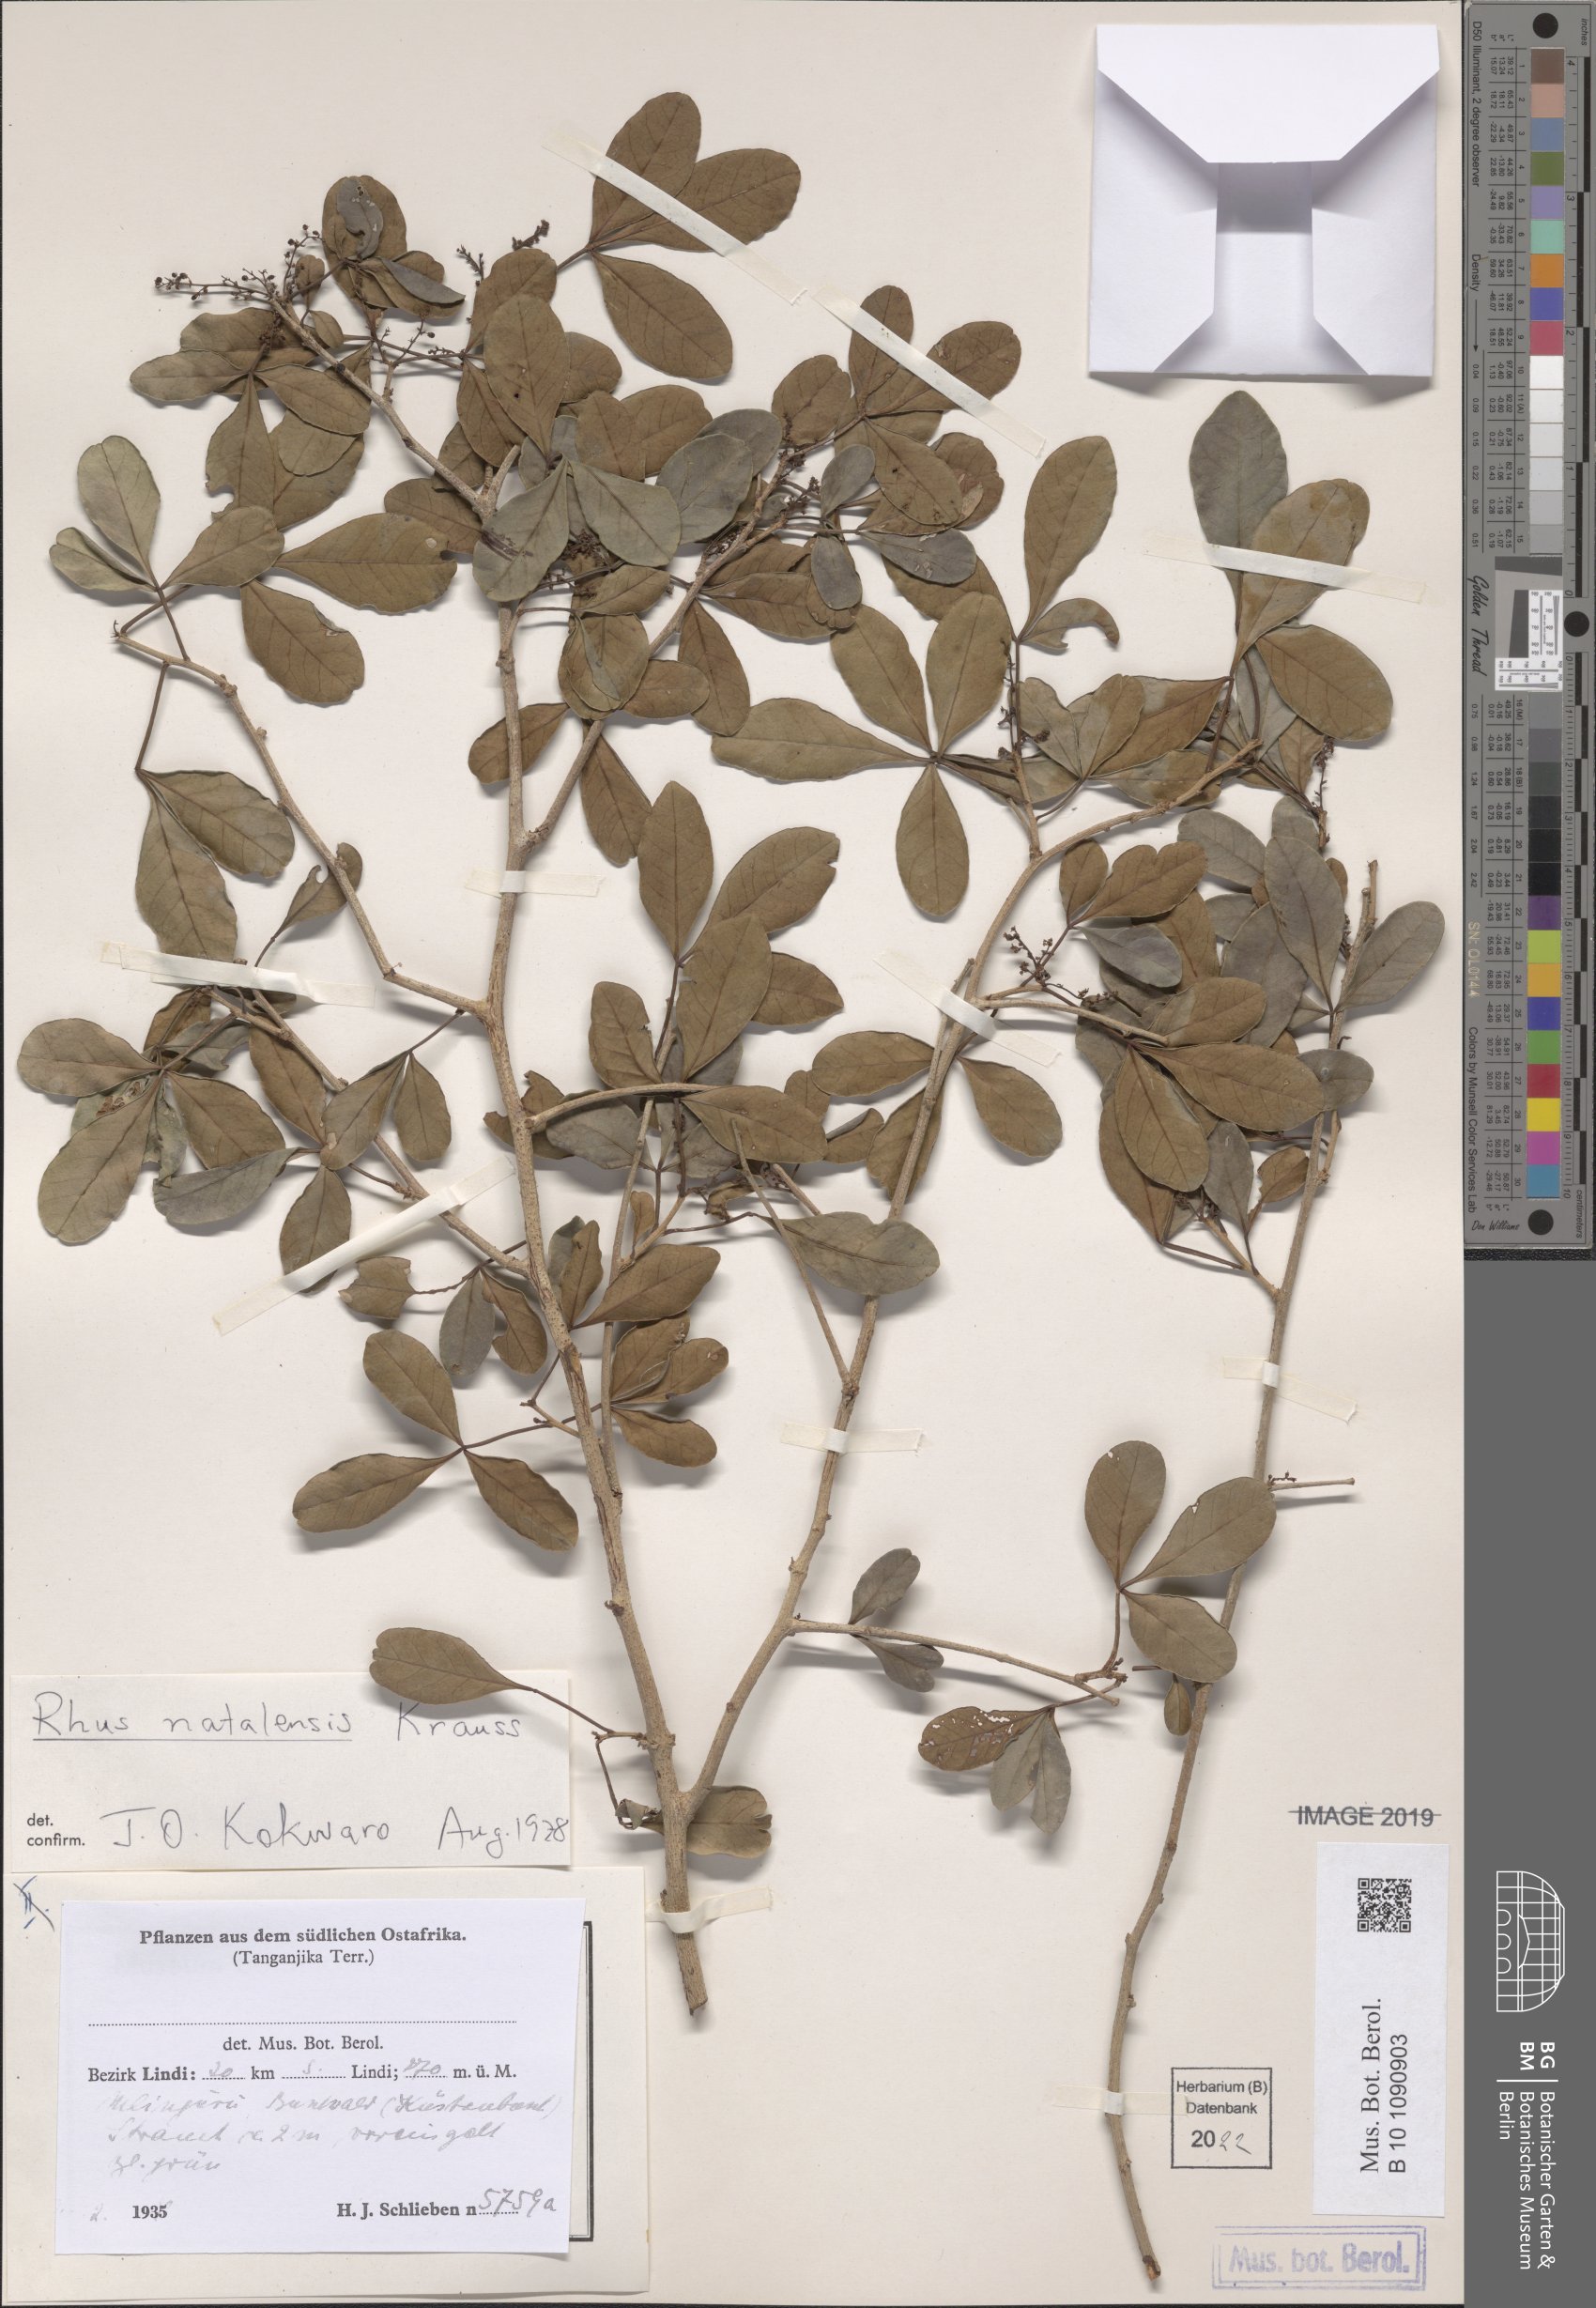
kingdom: Plantae
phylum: Tracheophyta
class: Magnoliopsida
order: Sapindales
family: Anacardiaceae
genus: Searsia
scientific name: Searsia natalensis
